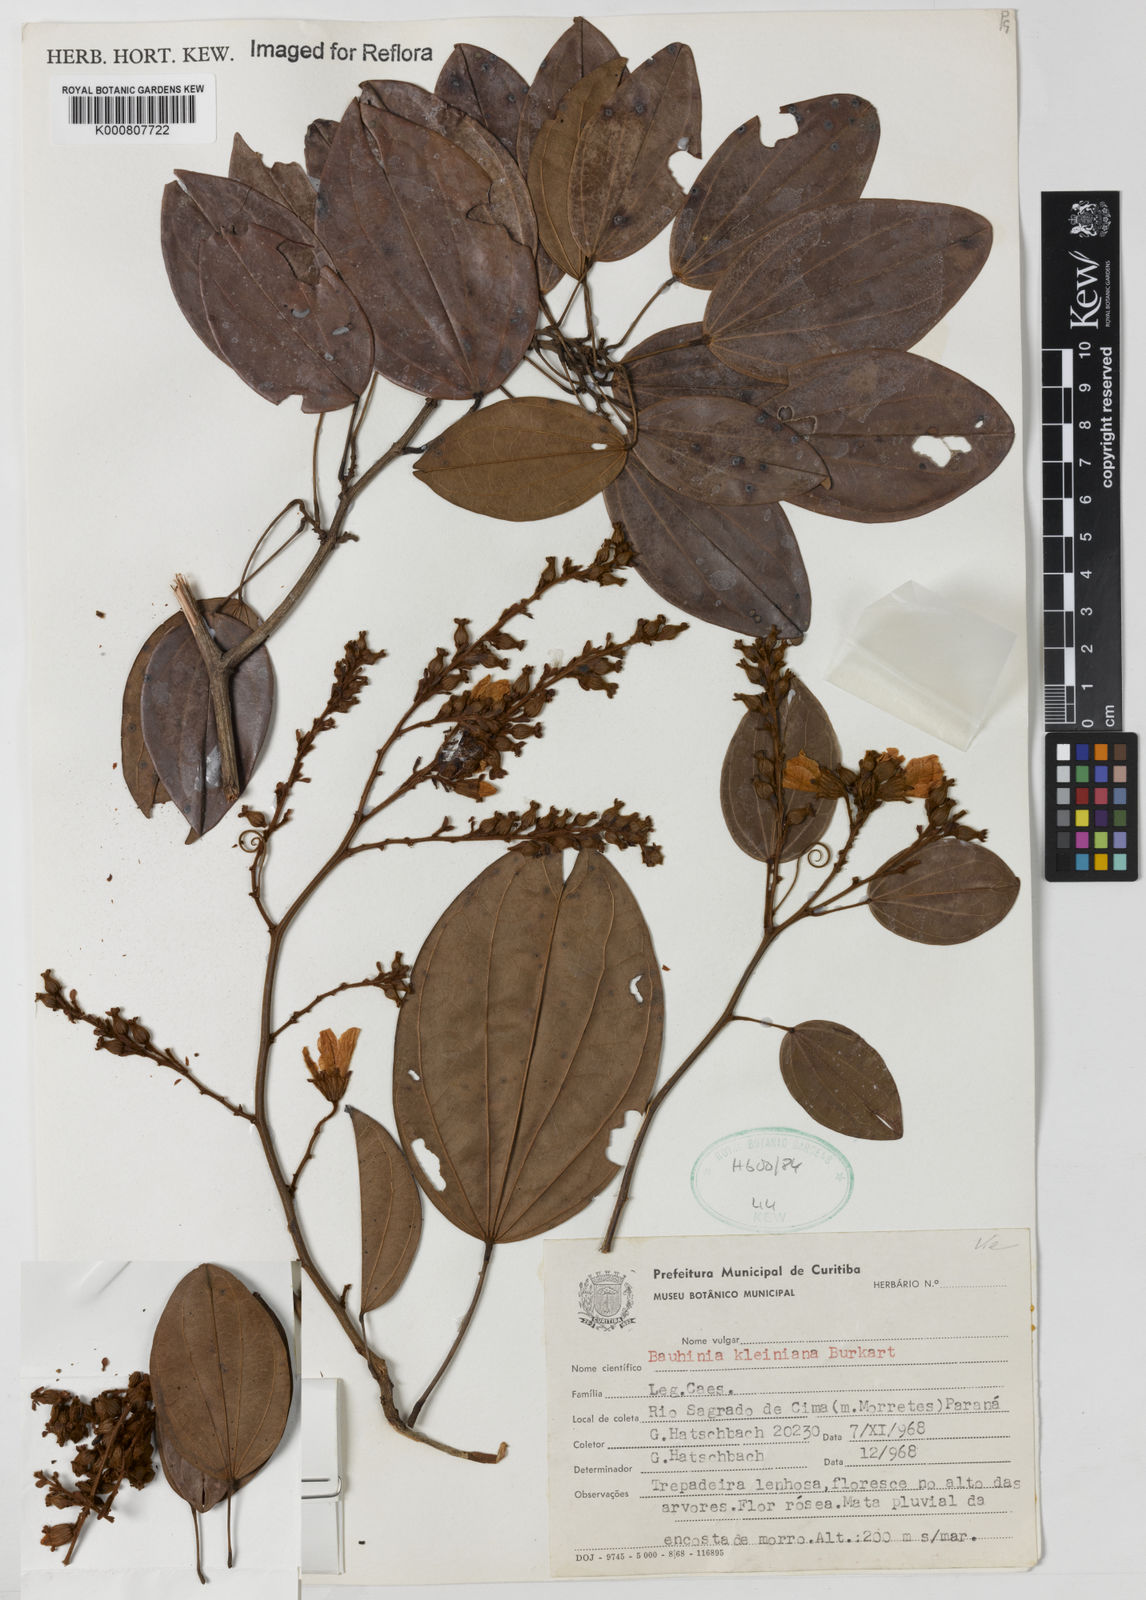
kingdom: Plantae
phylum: Tracheophyta
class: Magnoliopsida
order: Fabales
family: Fabaceae
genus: Bauhinia
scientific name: Bauhinia kleiniana
